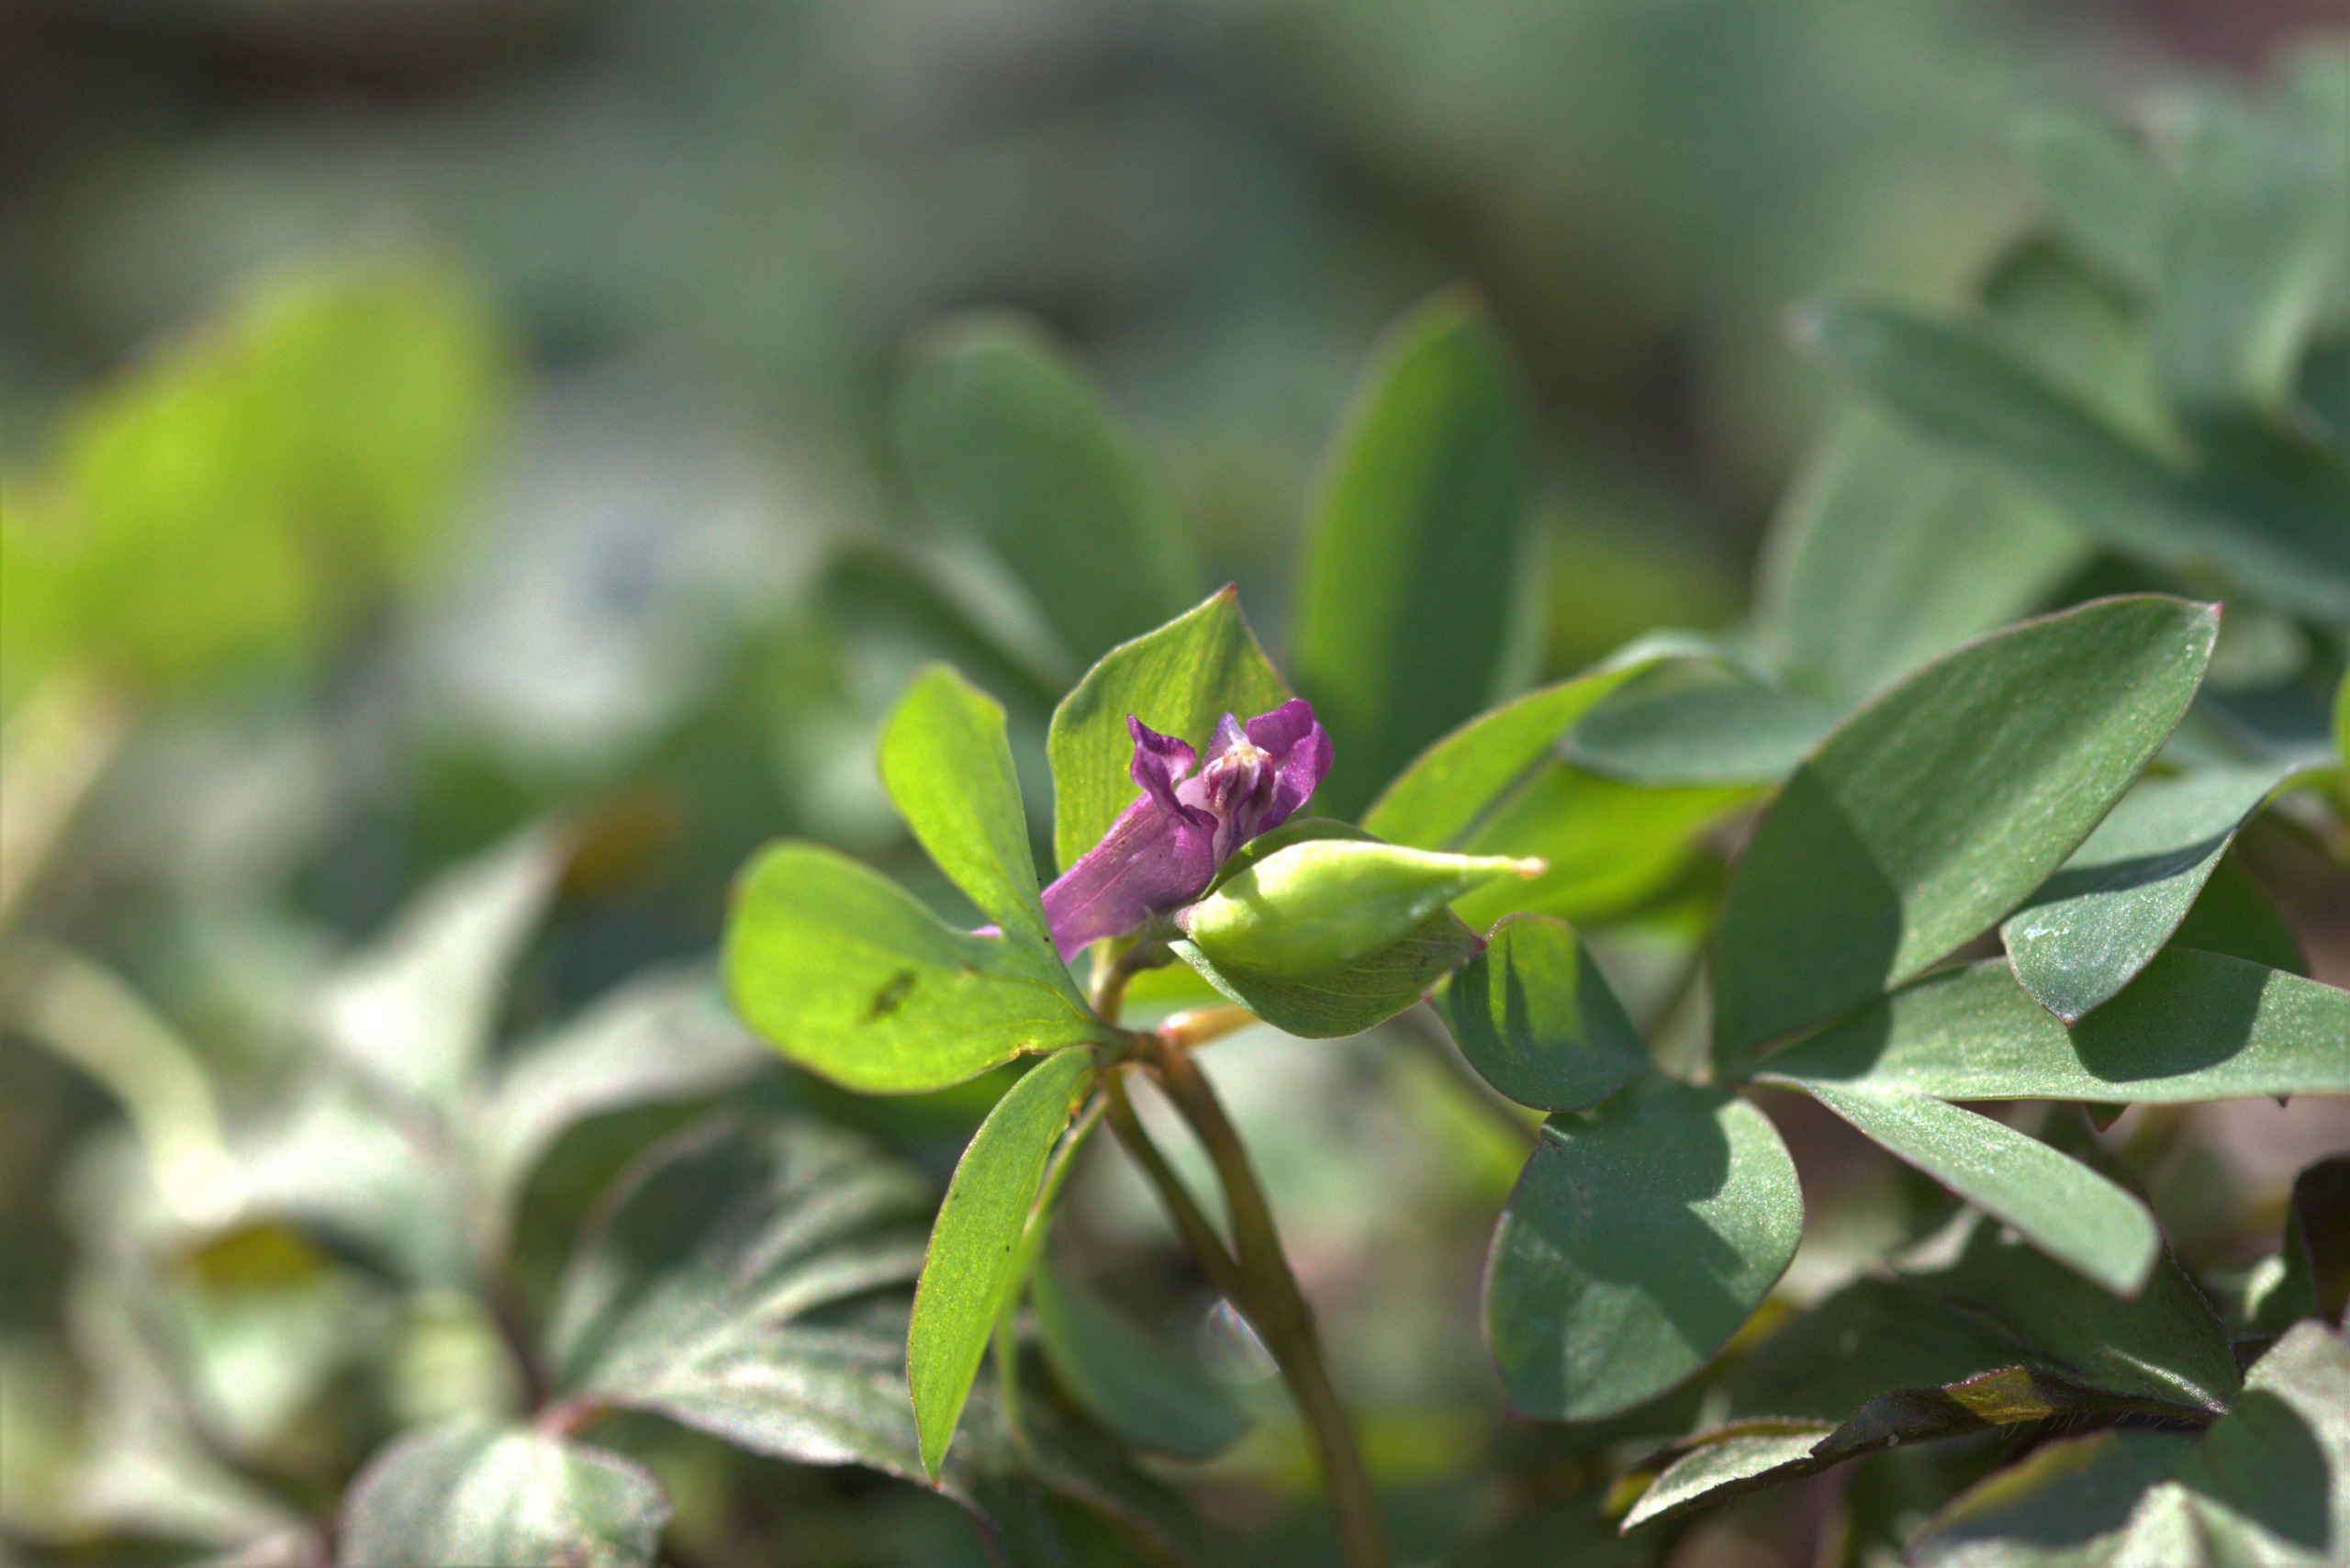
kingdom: Plantae
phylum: Tracheophyta
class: Magnoliopsida
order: Ranunculales
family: Papaveraceae
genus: Corydalis
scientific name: Corydalis intermedia
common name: Liden lærkespore
